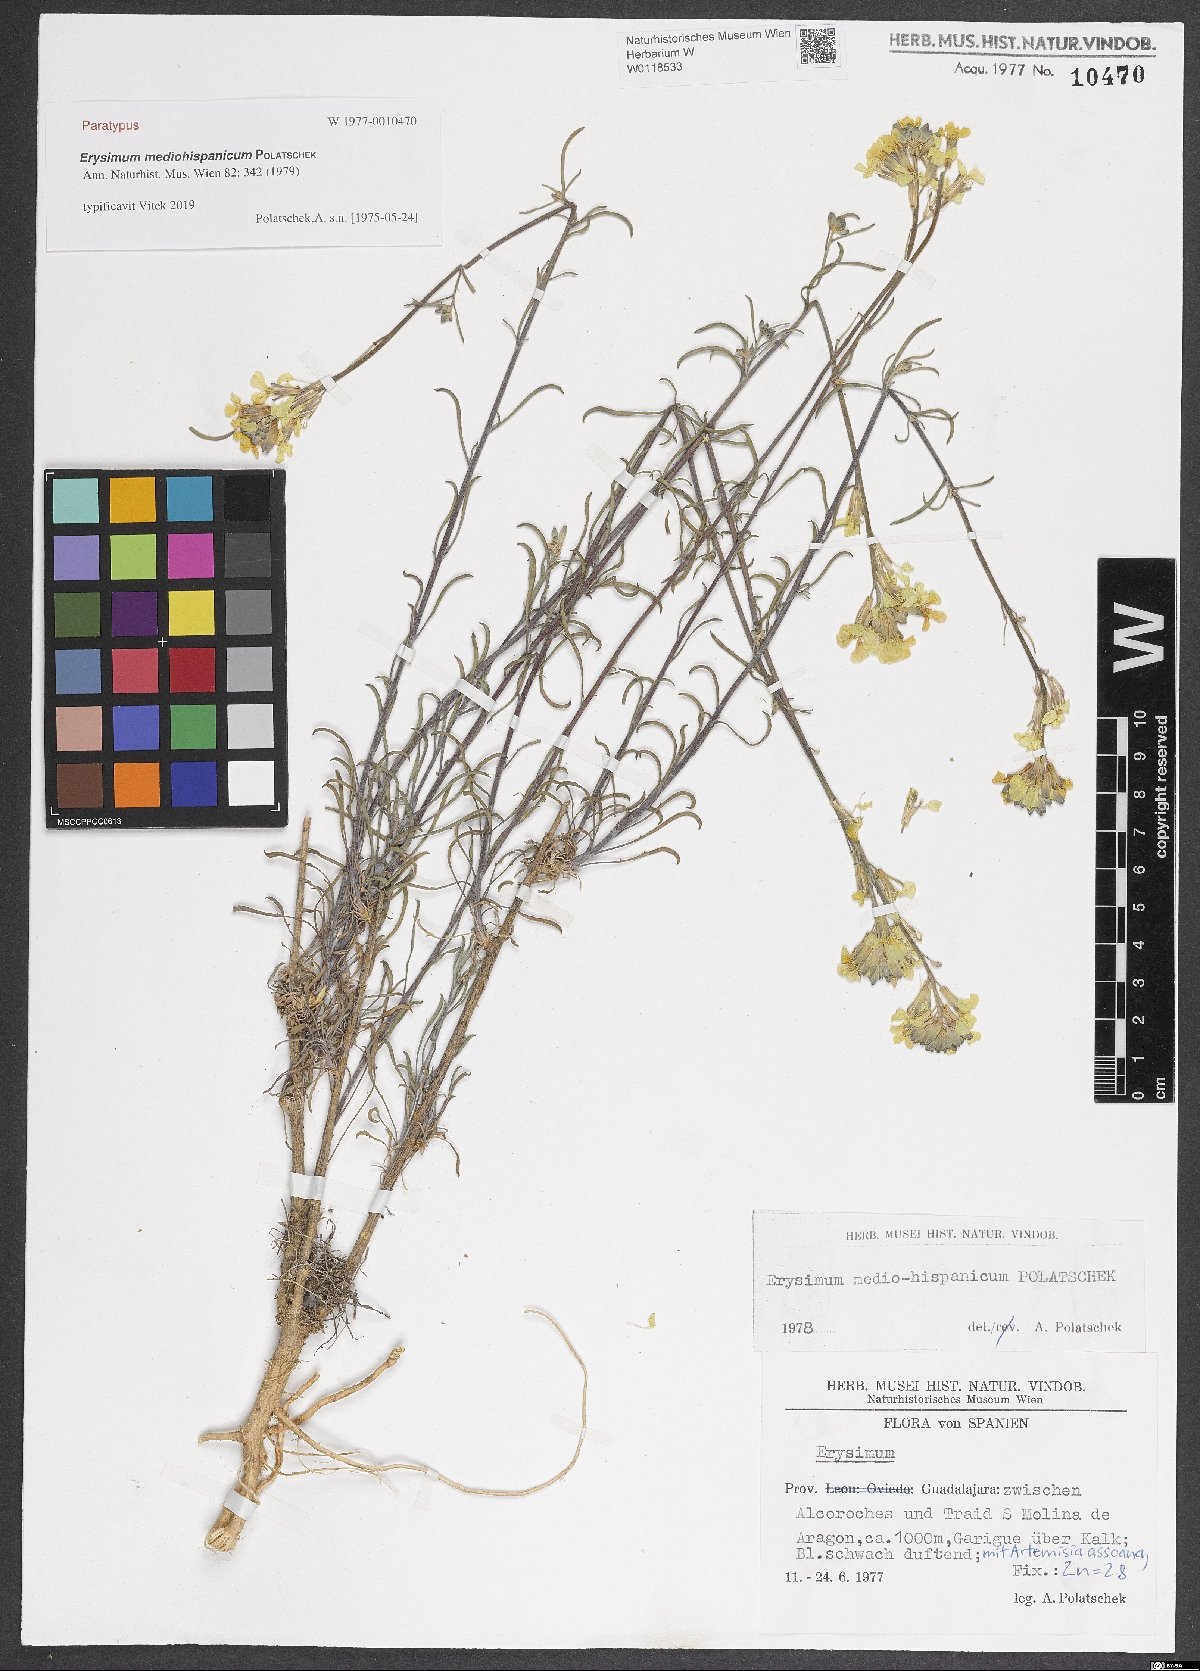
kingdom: Plantae
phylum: Tracheophyta
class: Magnoliopsida
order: Brassicales
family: Brassicaceae
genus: Erysimum
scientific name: Erysimum nevadense
